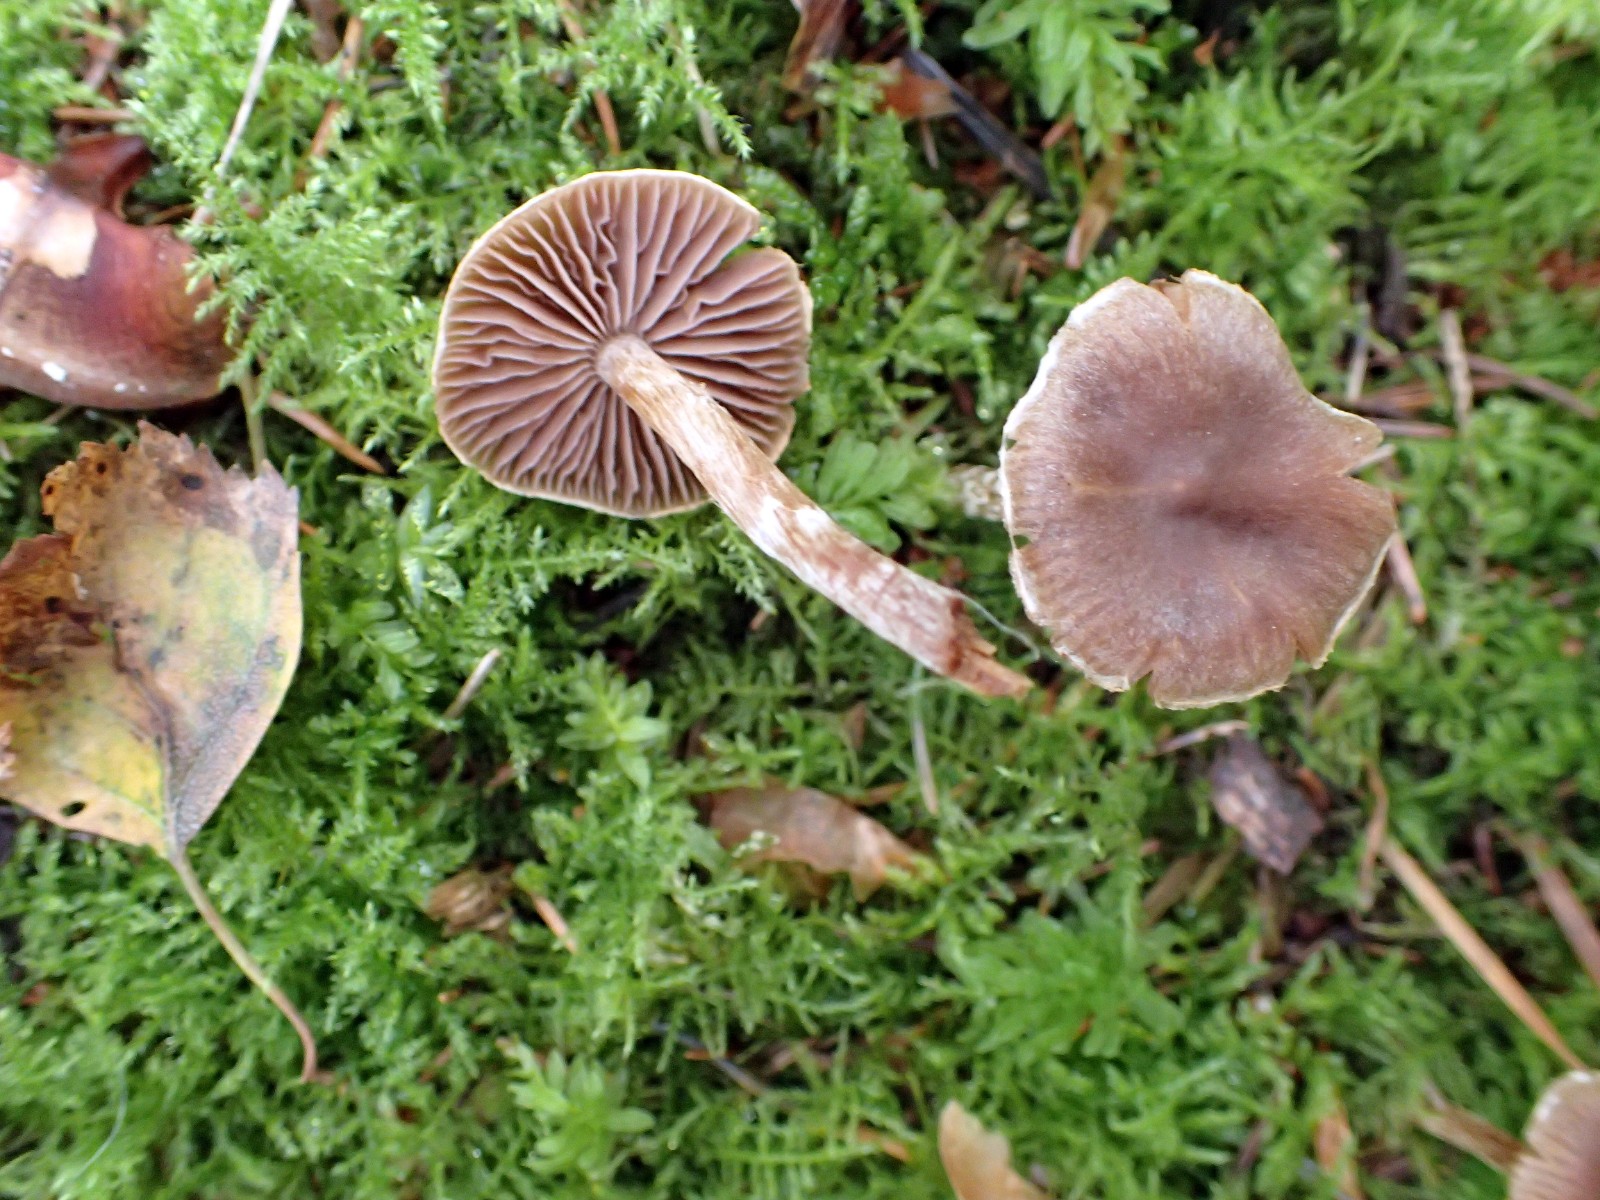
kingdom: Fungi
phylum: Basidiomycota
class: Agaricomycetes
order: Agaricales
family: Cortinariaceae
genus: Cortinarius
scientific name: Cortinarius
